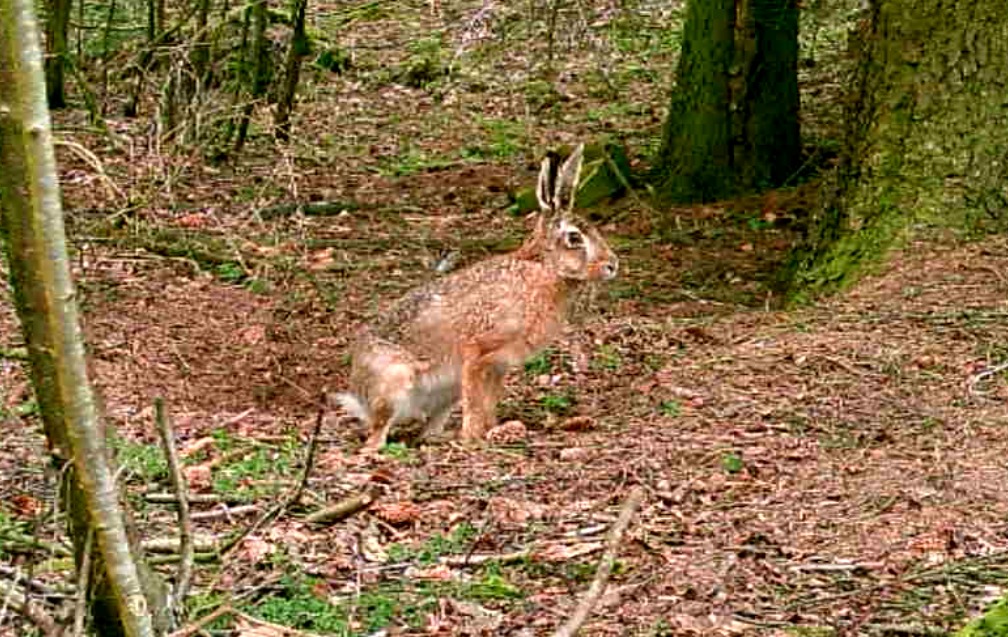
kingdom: Animalia
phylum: Chordata
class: Mammalia
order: Lagomorpha
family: Leporidae
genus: Lepus
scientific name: Lepus europaeus
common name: Hare
